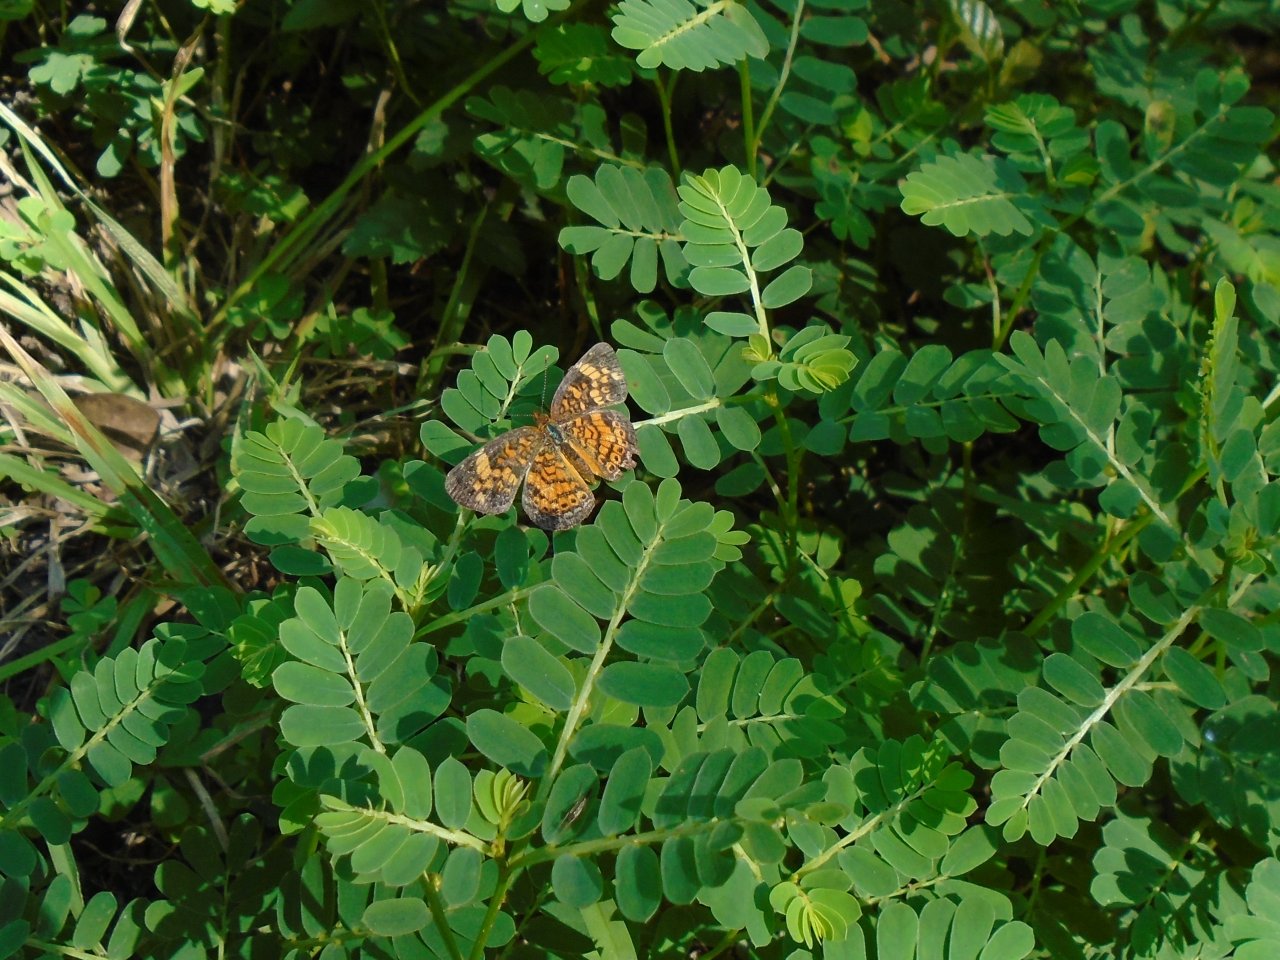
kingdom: Animalia
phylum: Arthropoda
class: Insecta
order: Lepidoptera
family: Nymphalidae
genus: Phyciodes
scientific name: Phyciodes tharos
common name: Pearl Crescent
